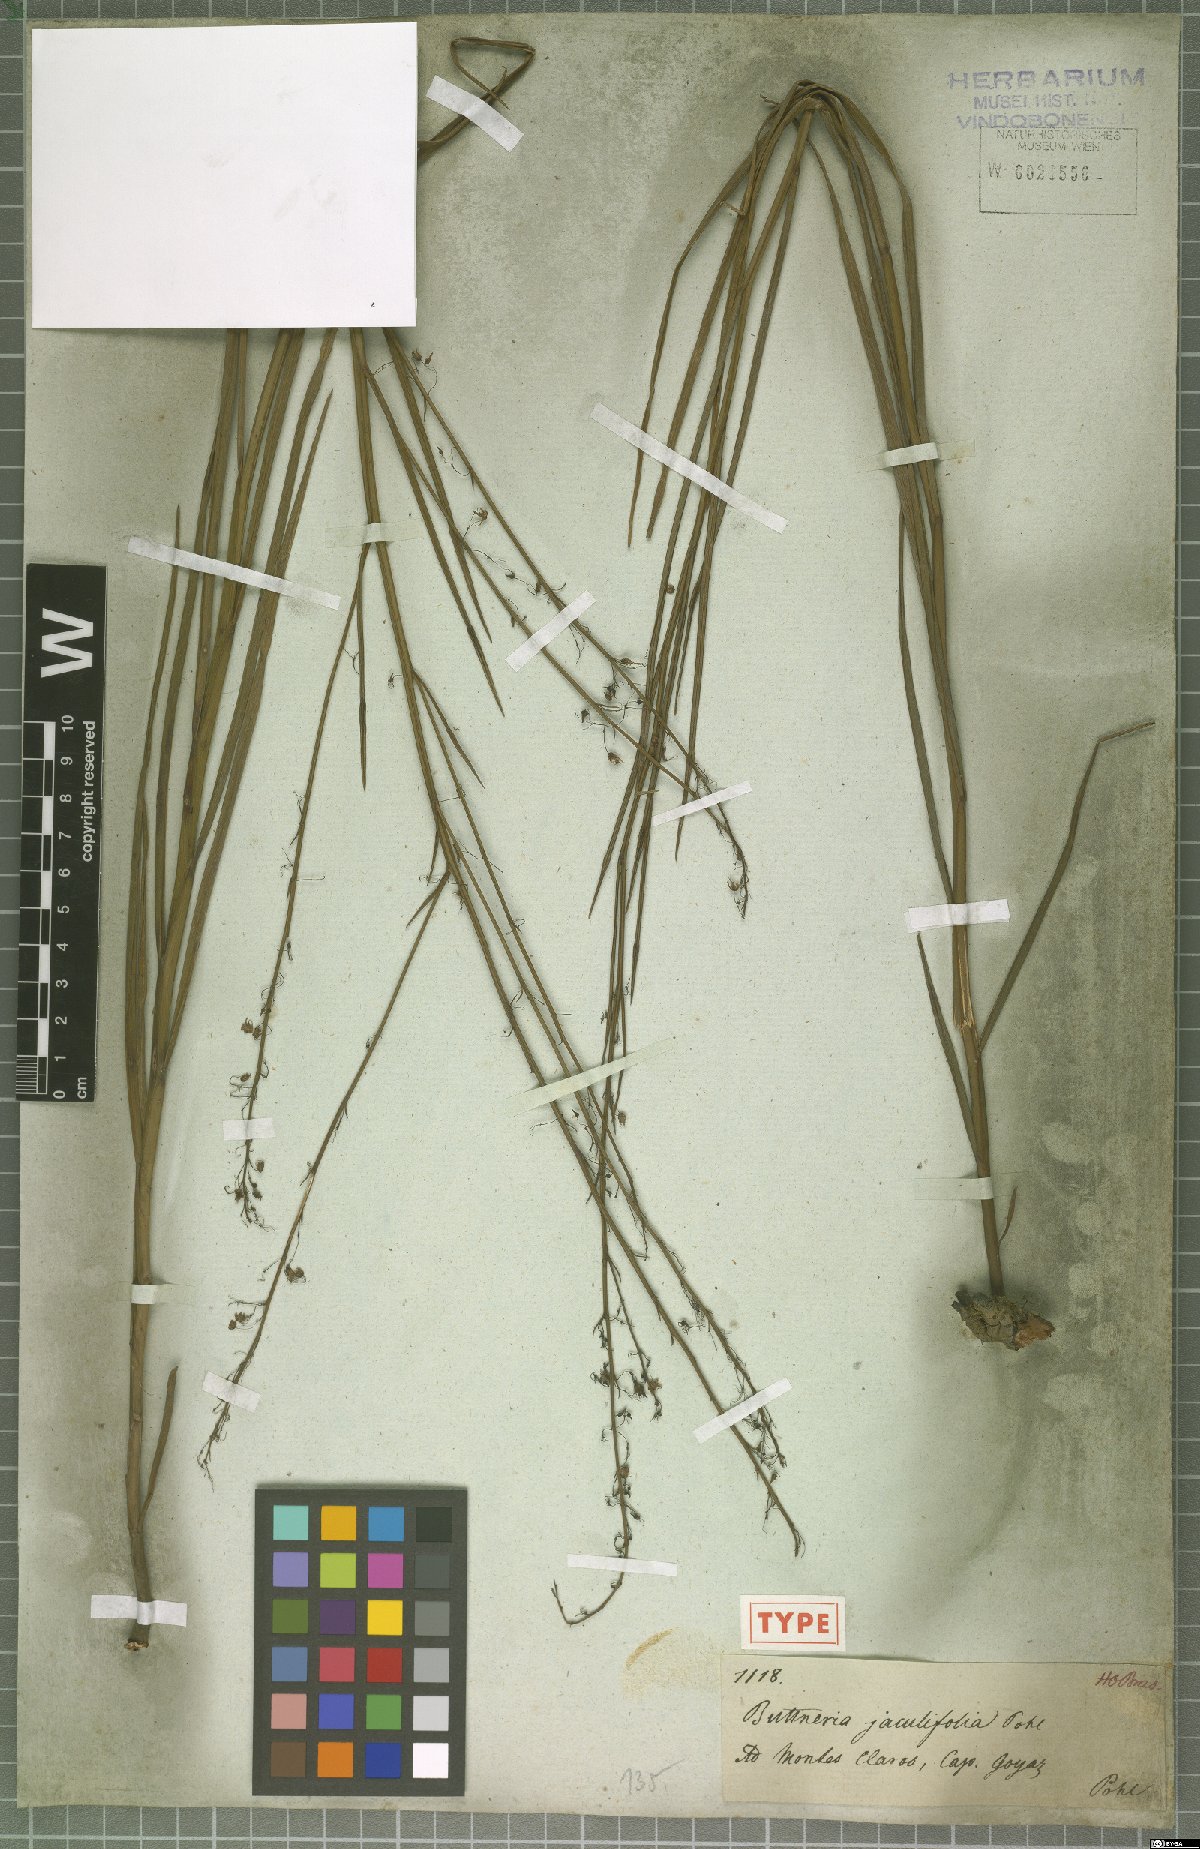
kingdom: Plantae
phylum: Tracheophyta
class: Magnoliopsida
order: Malvales
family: Malvaceae
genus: Byttneria
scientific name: Byttneria jaculifolia
